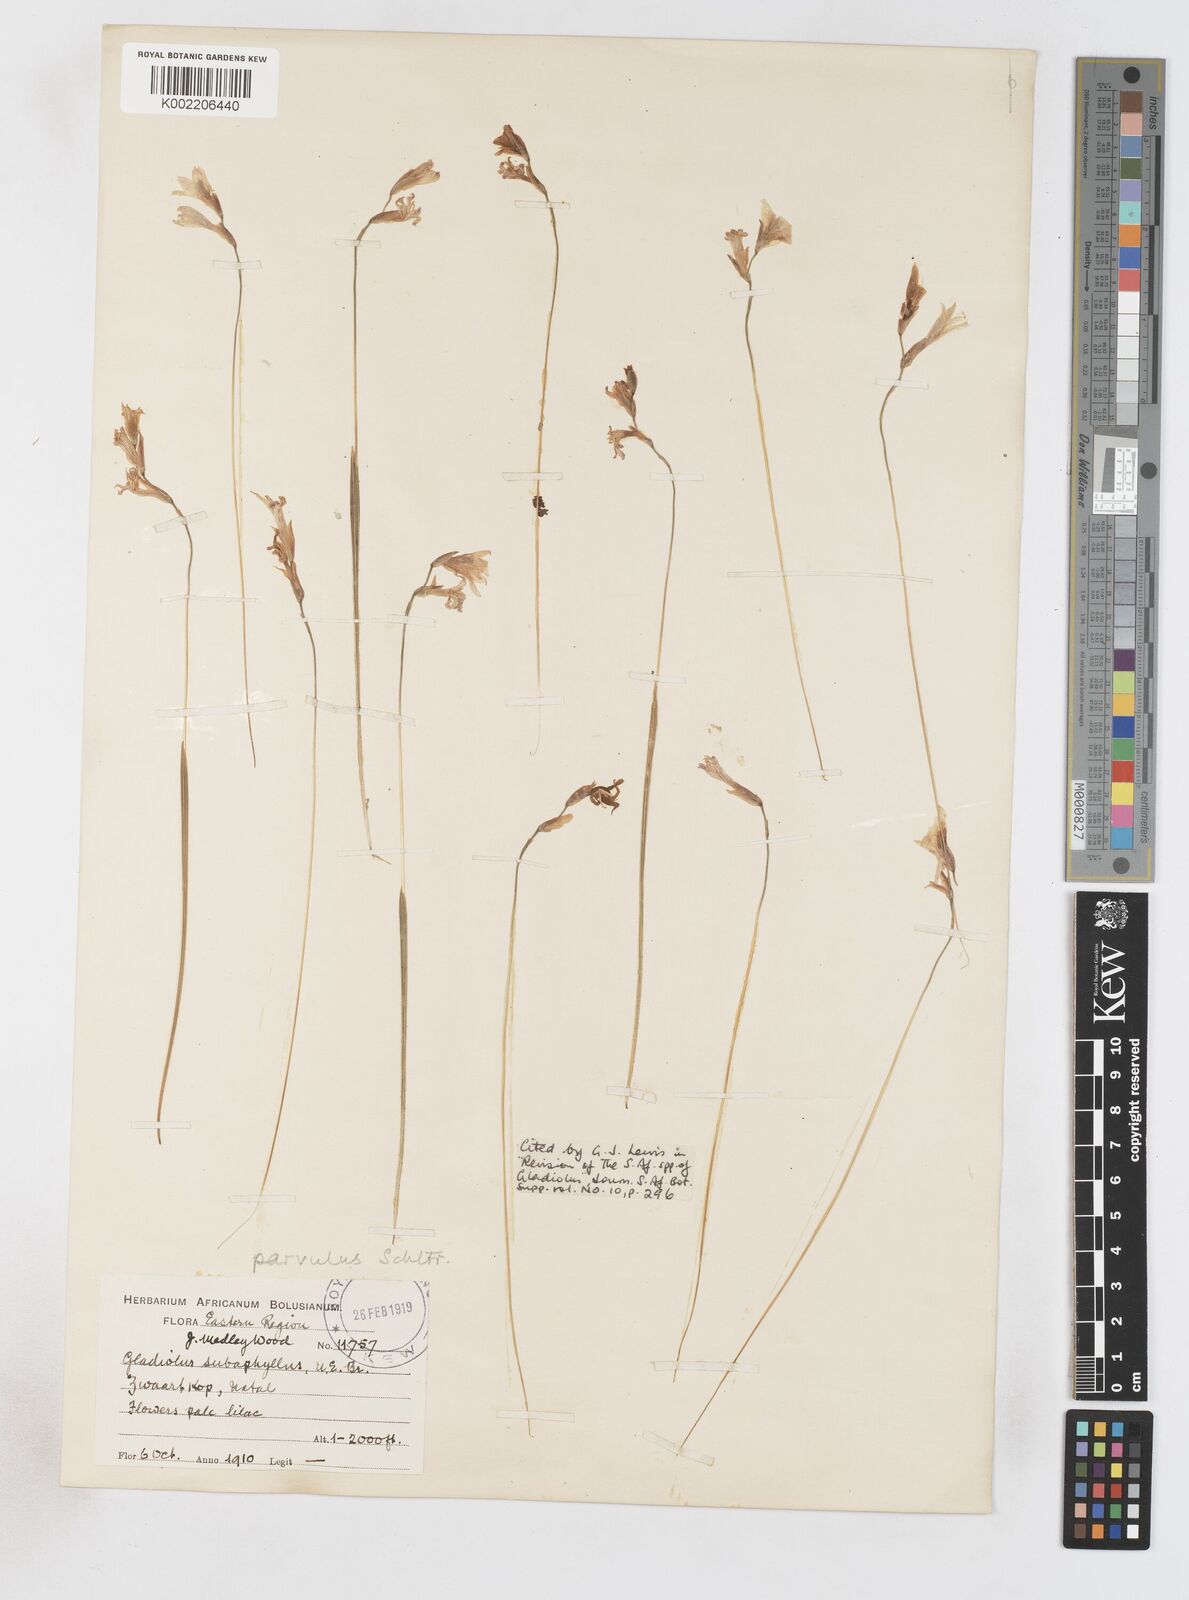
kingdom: Plantae
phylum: Tracheophyta
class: Liliopsida
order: Asparagales
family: Iridaceae
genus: Gladiolus
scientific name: Gladiolus parvulus
